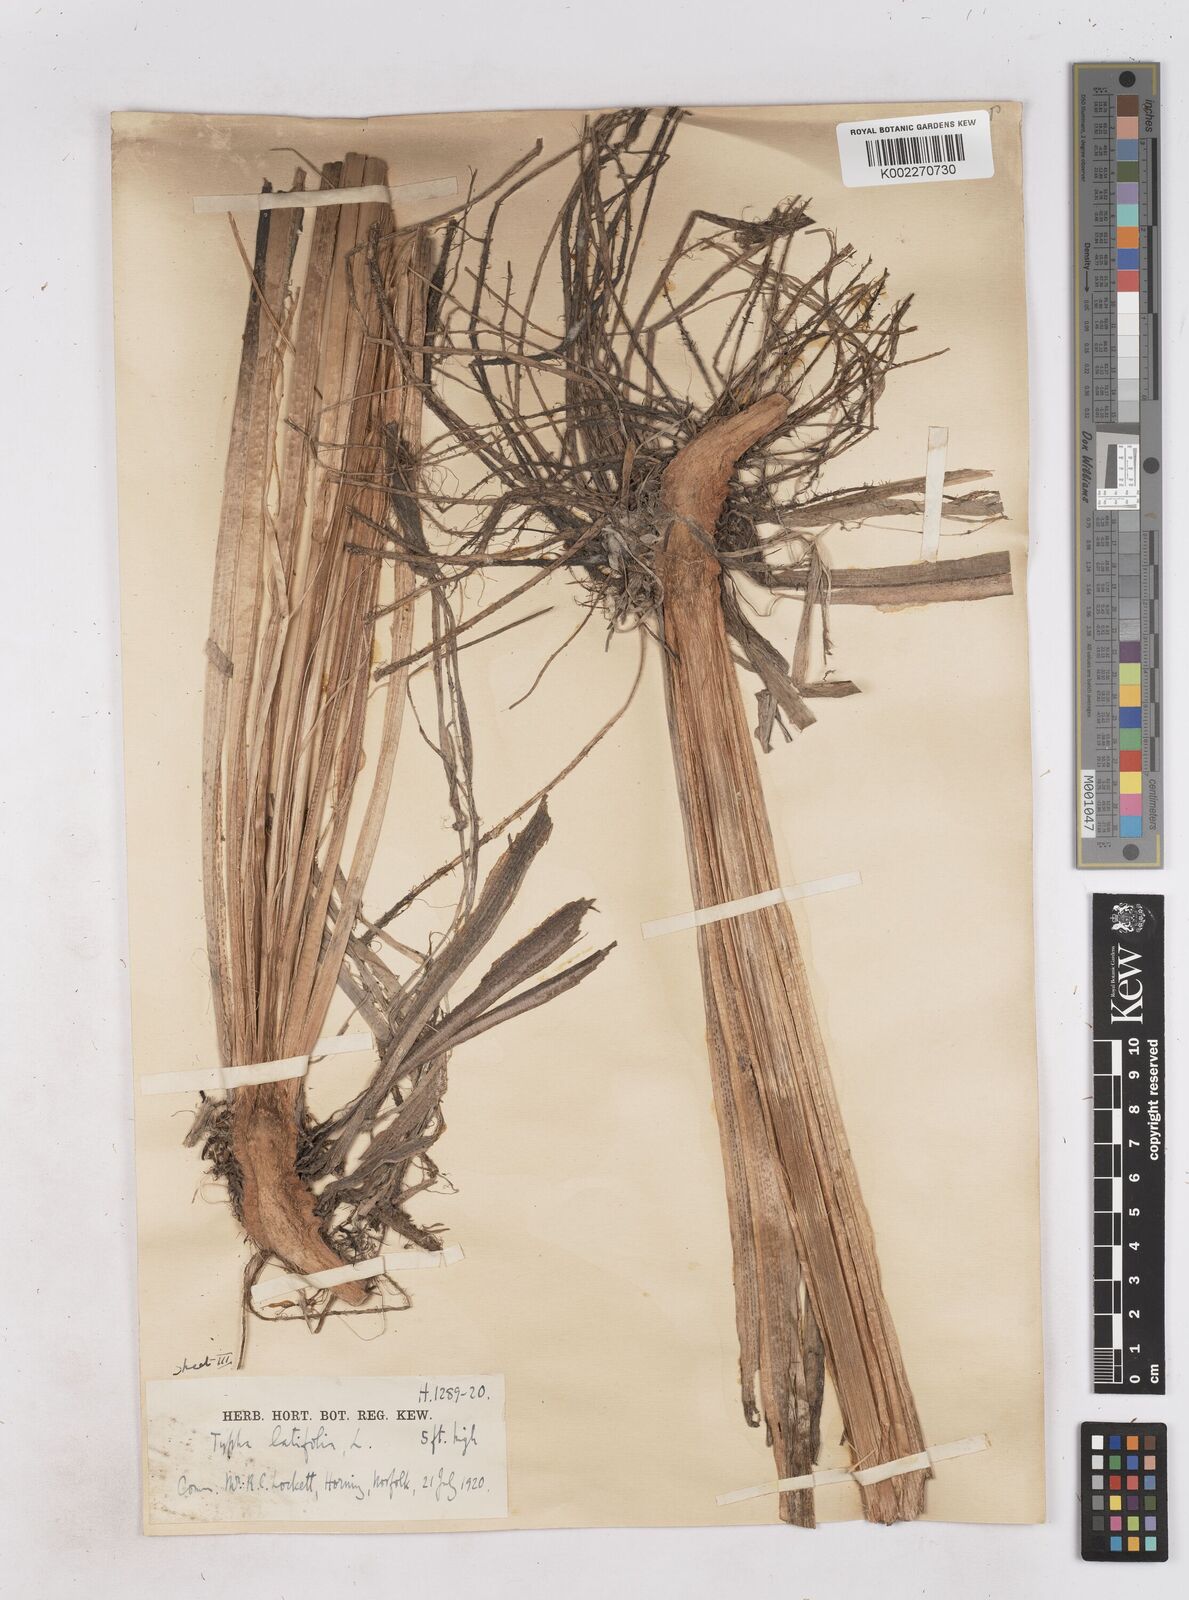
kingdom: Plantae
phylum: Tracheophyta
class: Liliopsida
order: Poales
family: Typhaceae
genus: Typha
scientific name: Typha latifolia
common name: Broadleaf cattail
